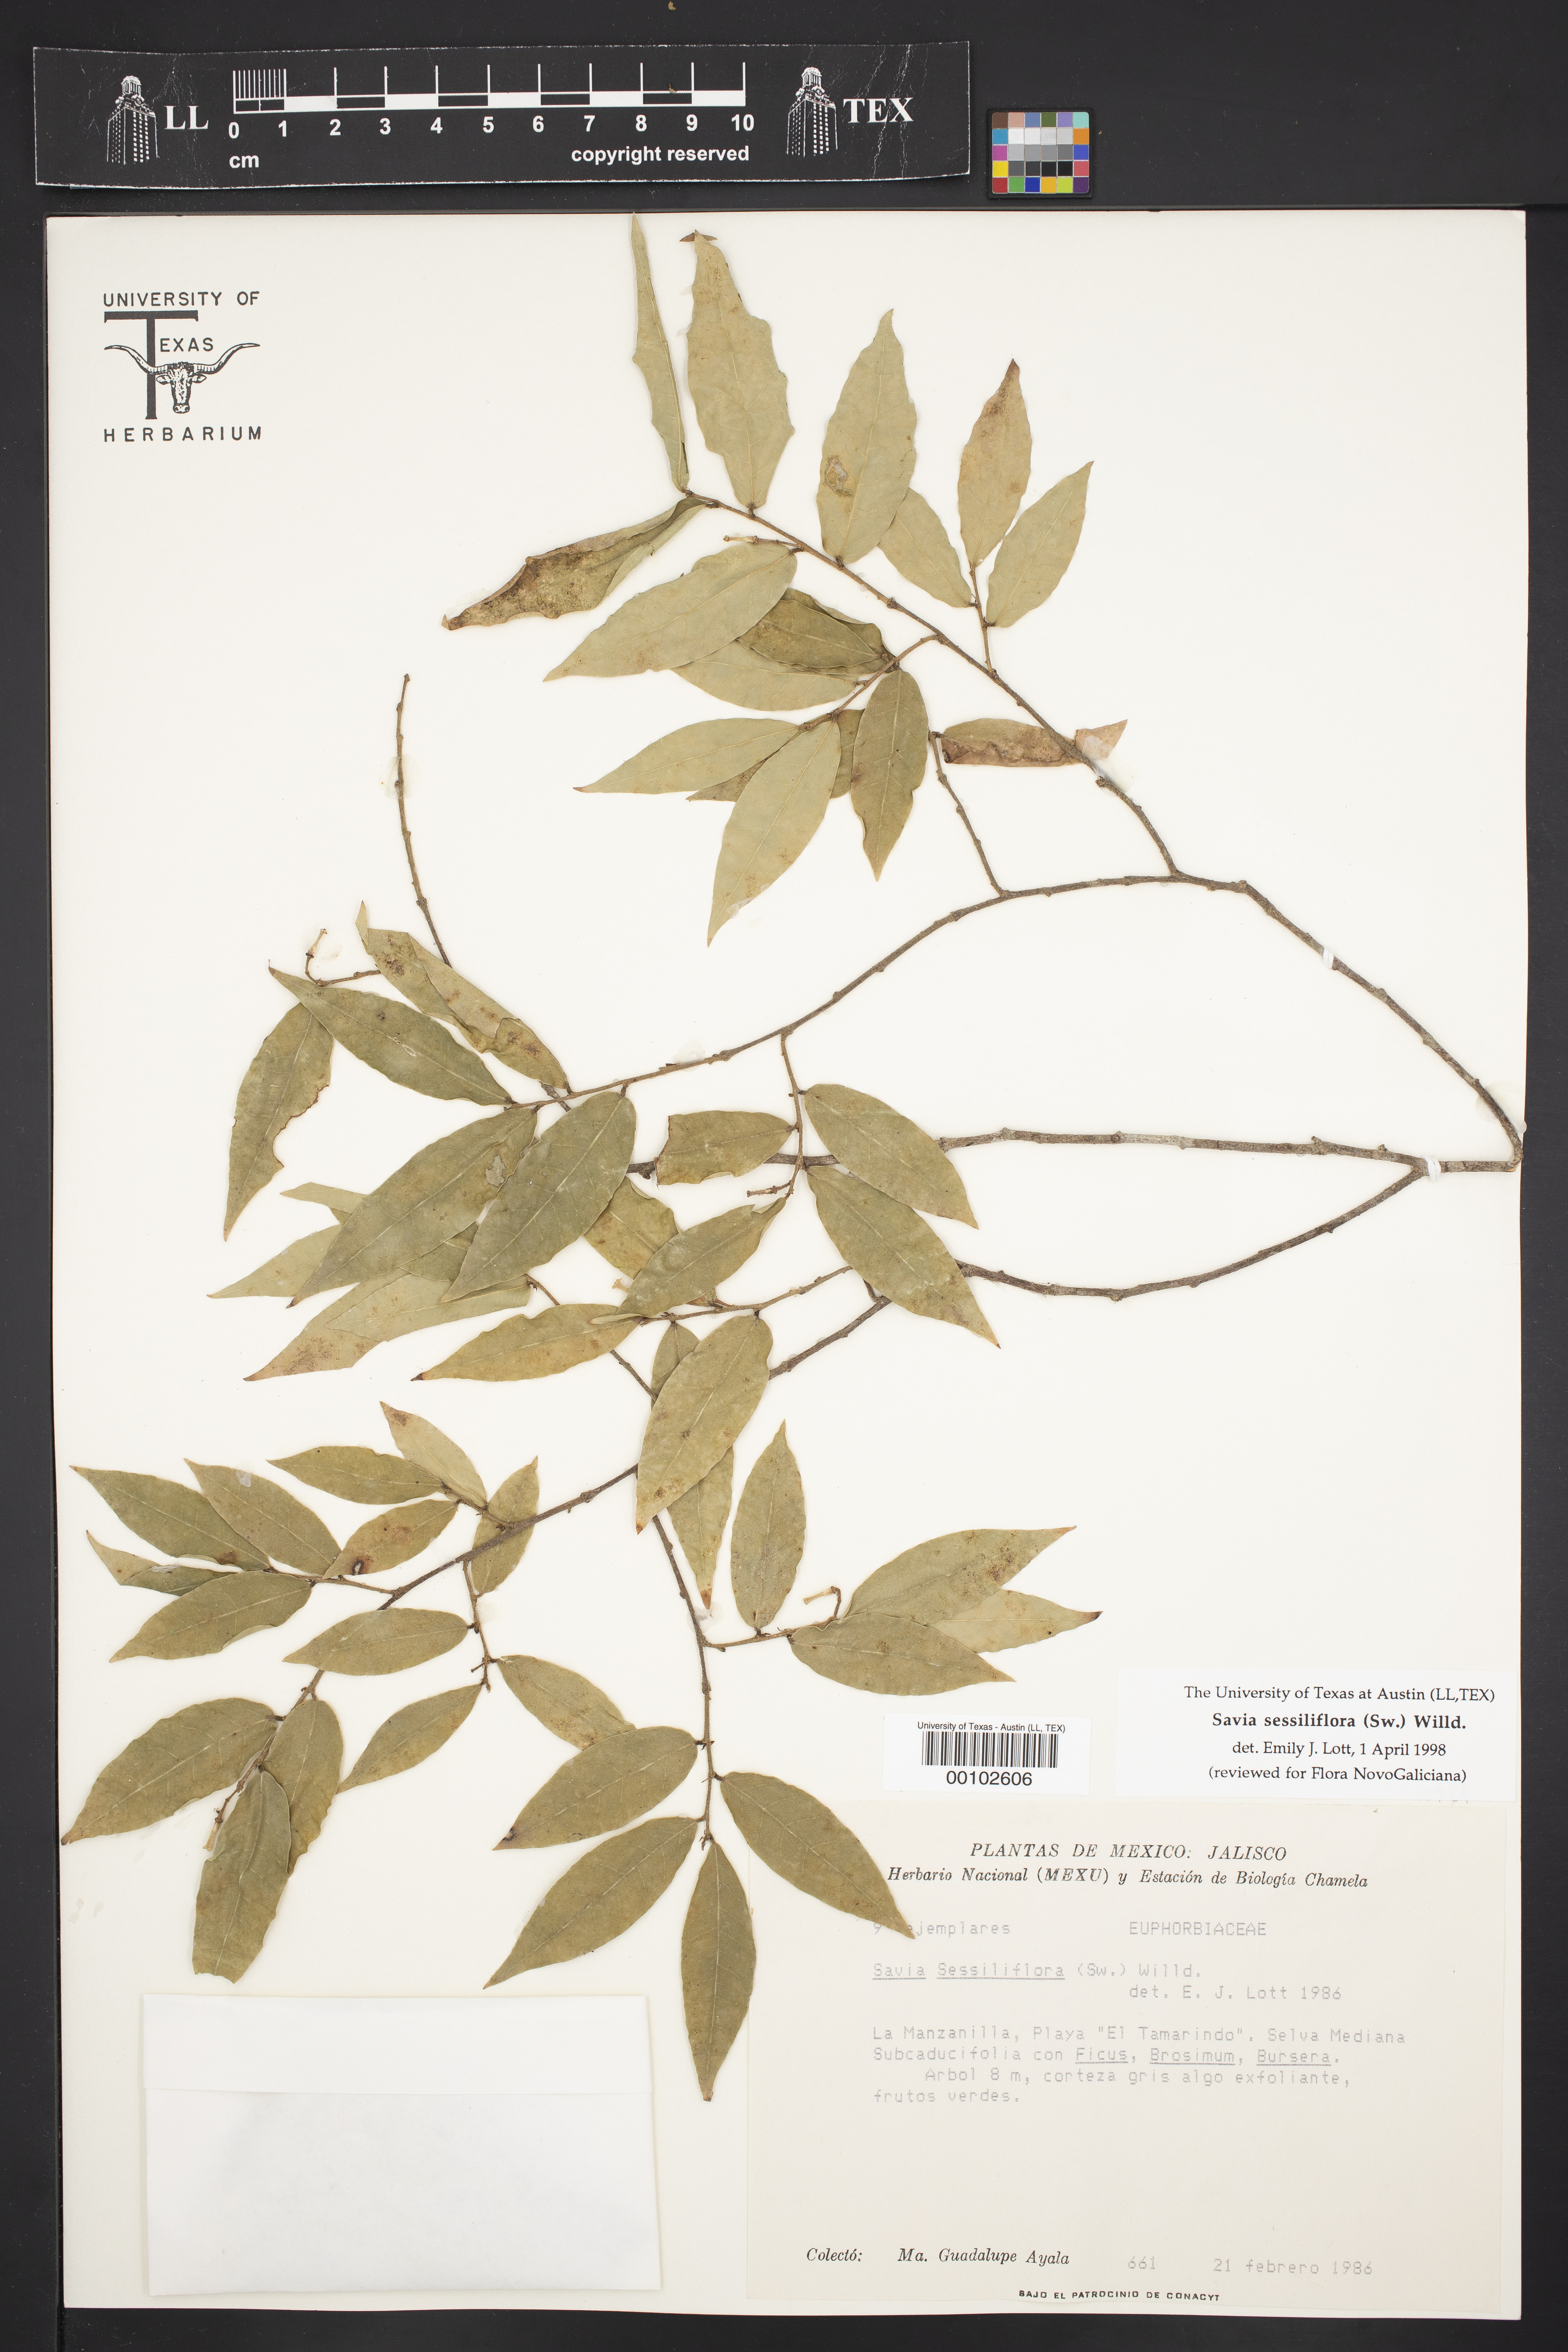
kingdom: Plantae
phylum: Tracheophyta
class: Magnoliopsida
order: Malpighiales
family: Phyllanthaceae
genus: Savia
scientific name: Savia sessiliflora
